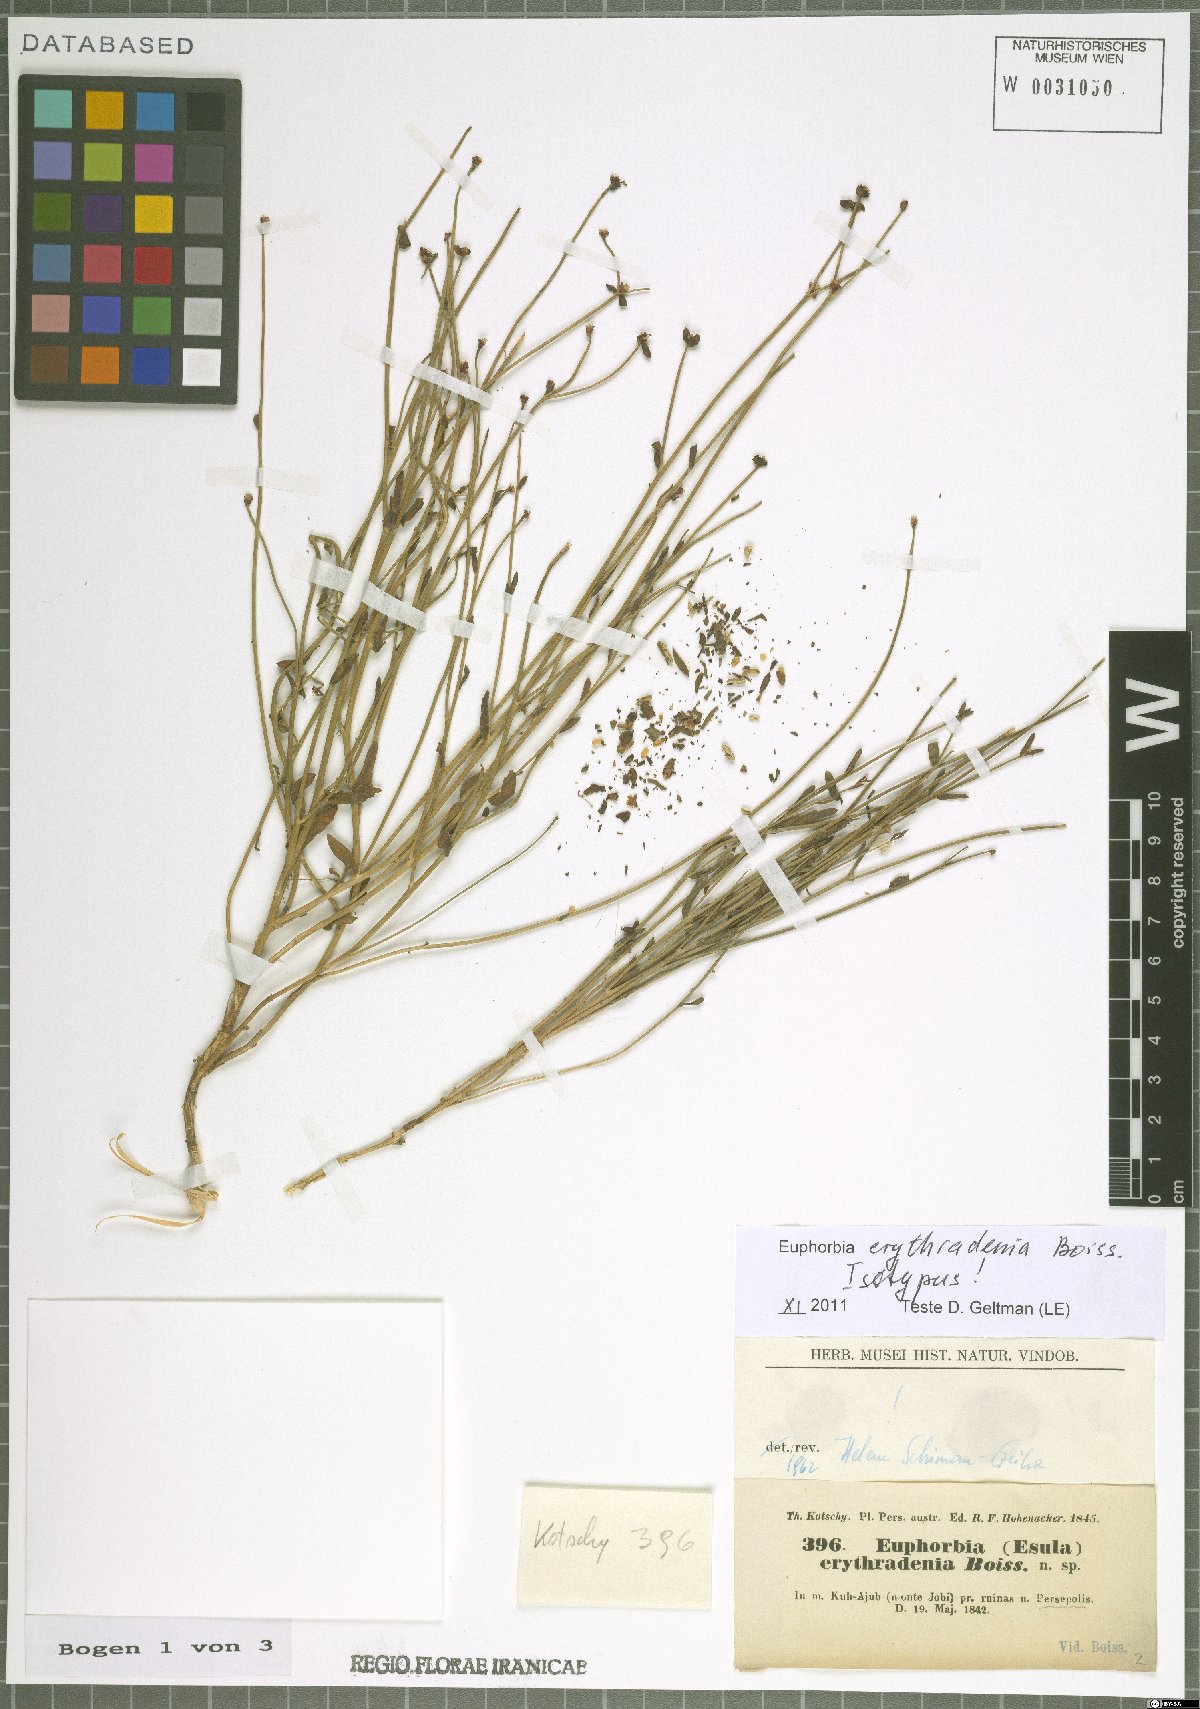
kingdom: Plantae
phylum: Tracheophyta
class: Magnoliopsida
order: Malpighiales
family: Euphorbiaceae
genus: Euphorbia
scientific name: Euphorbia erythradenia
